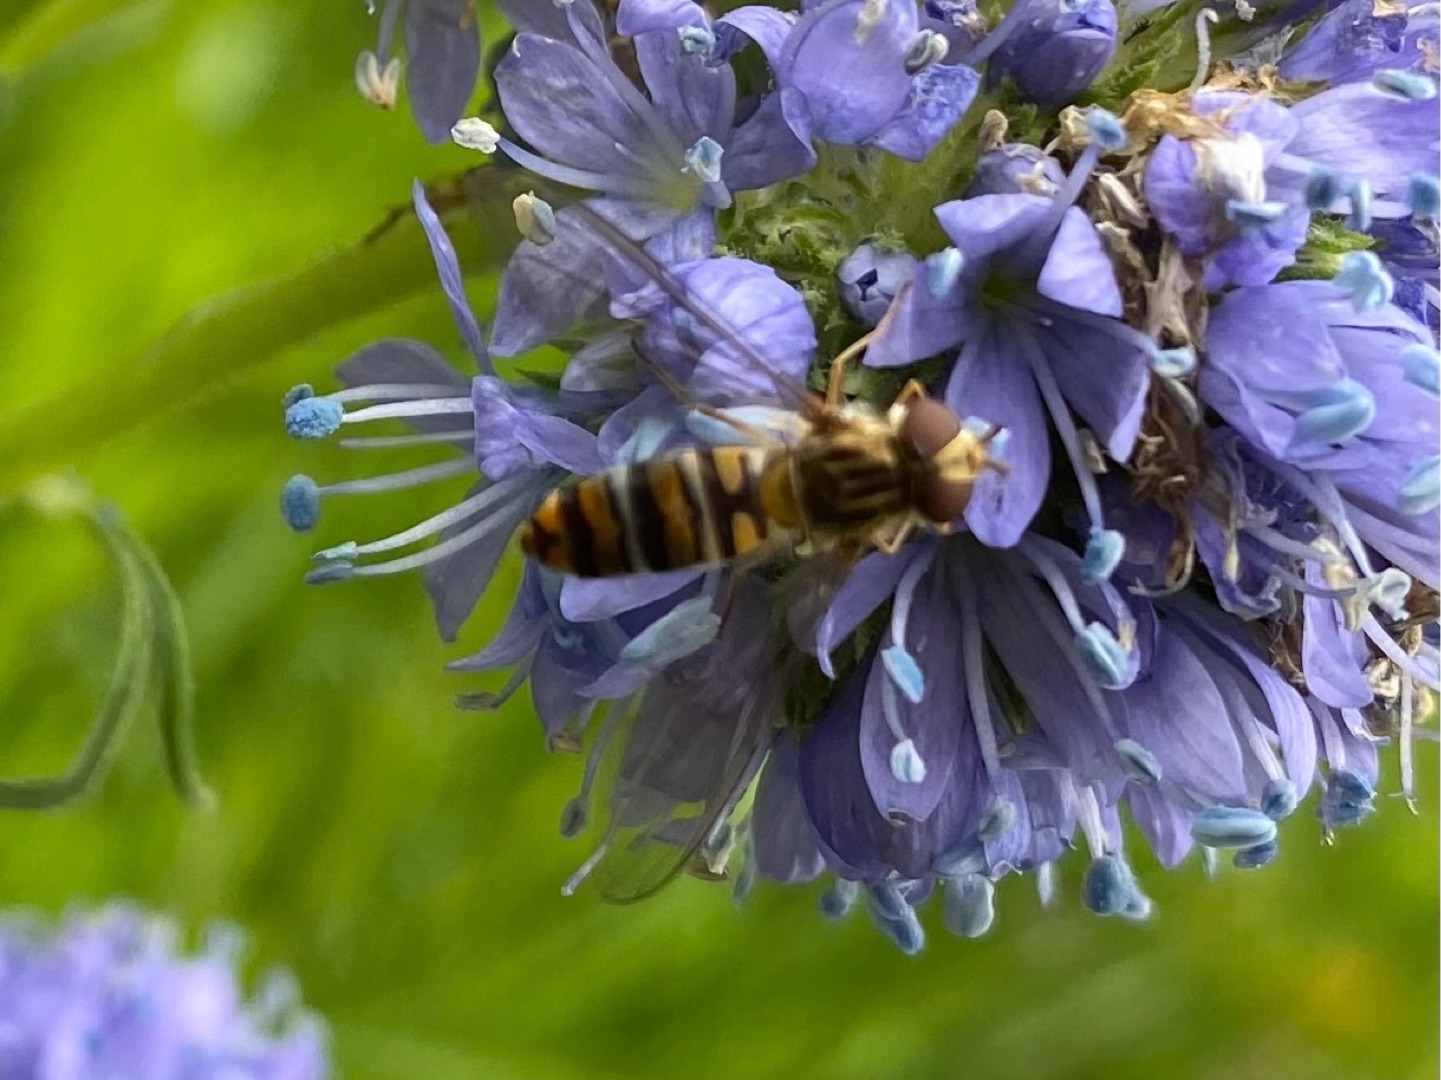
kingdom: Animalia
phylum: Arthropoda
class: Insecta
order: Diptera
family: Syrphidae
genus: Episyrphus
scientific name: Episyrphus balteatus
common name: Dobbeltbåndet svirreflue
